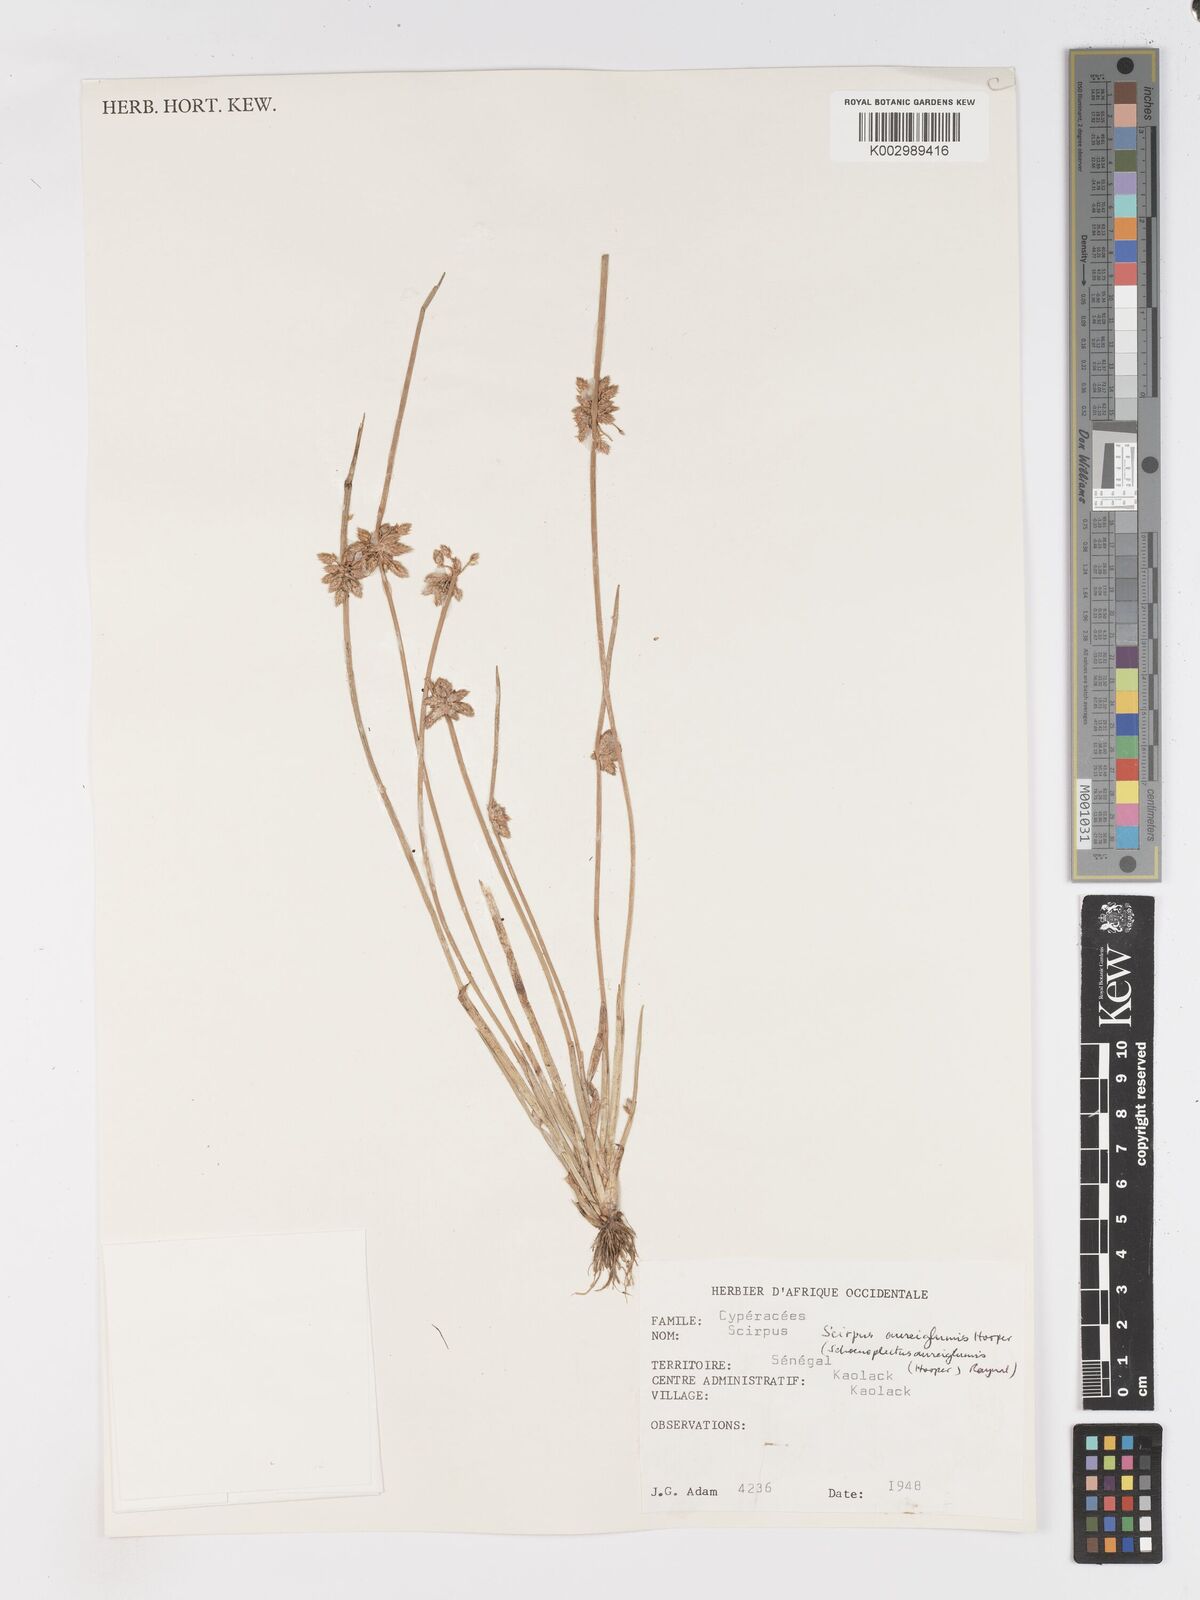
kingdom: Plantae
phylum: Tracheophyta
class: Liliopsida
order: Poales
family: Cyperaceae
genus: Schoenoplectus
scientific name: Schoenoplectus
